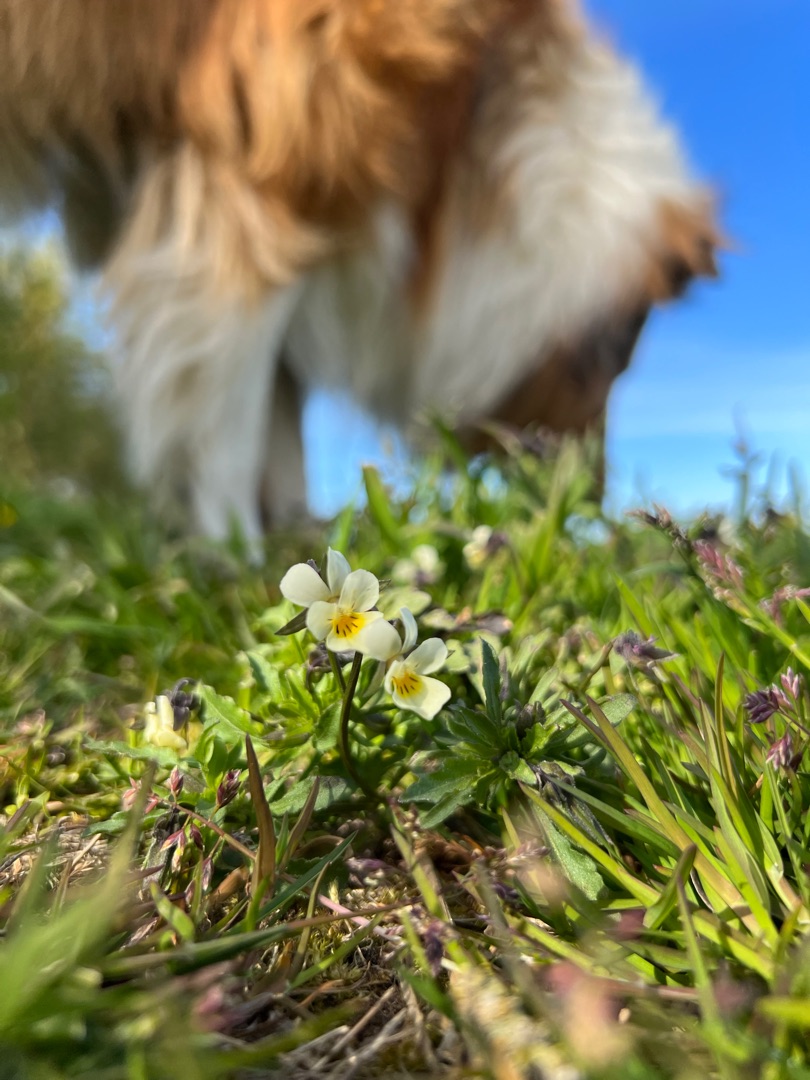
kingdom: Plantae
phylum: Tracheophyta
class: Magnoliopsida
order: Malpighiales
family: Violaceae
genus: Viola
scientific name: Viola arvensis
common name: Ager-stedmoderblomst
